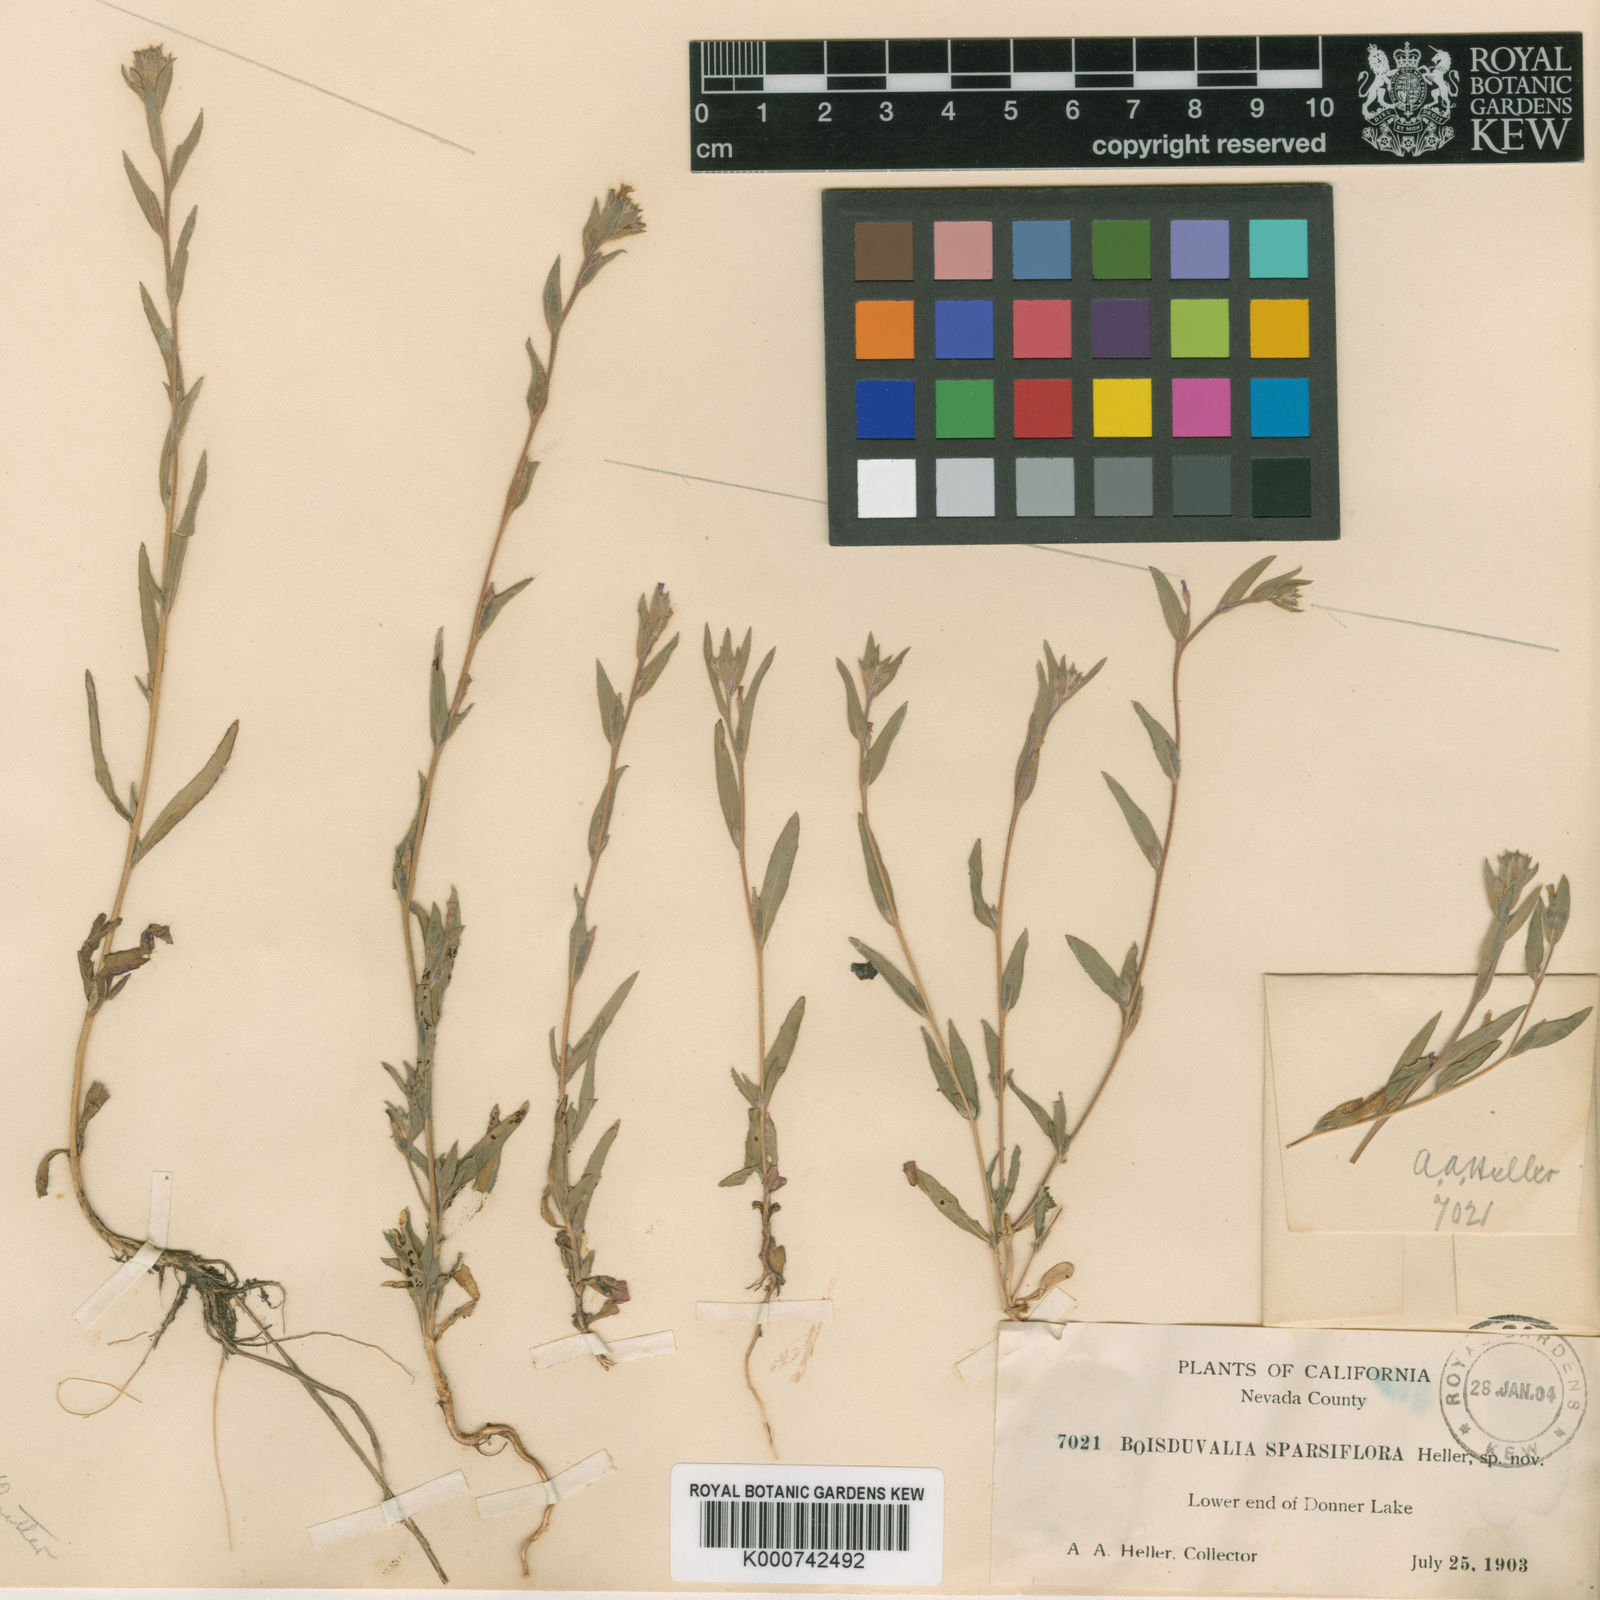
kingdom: Plantae
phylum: Tracheophyta
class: Magnoliopsida
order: Myrtales
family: Onagraceae
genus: Epilobium
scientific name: Epilobium densiflorum
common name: Dense spike-primrose
